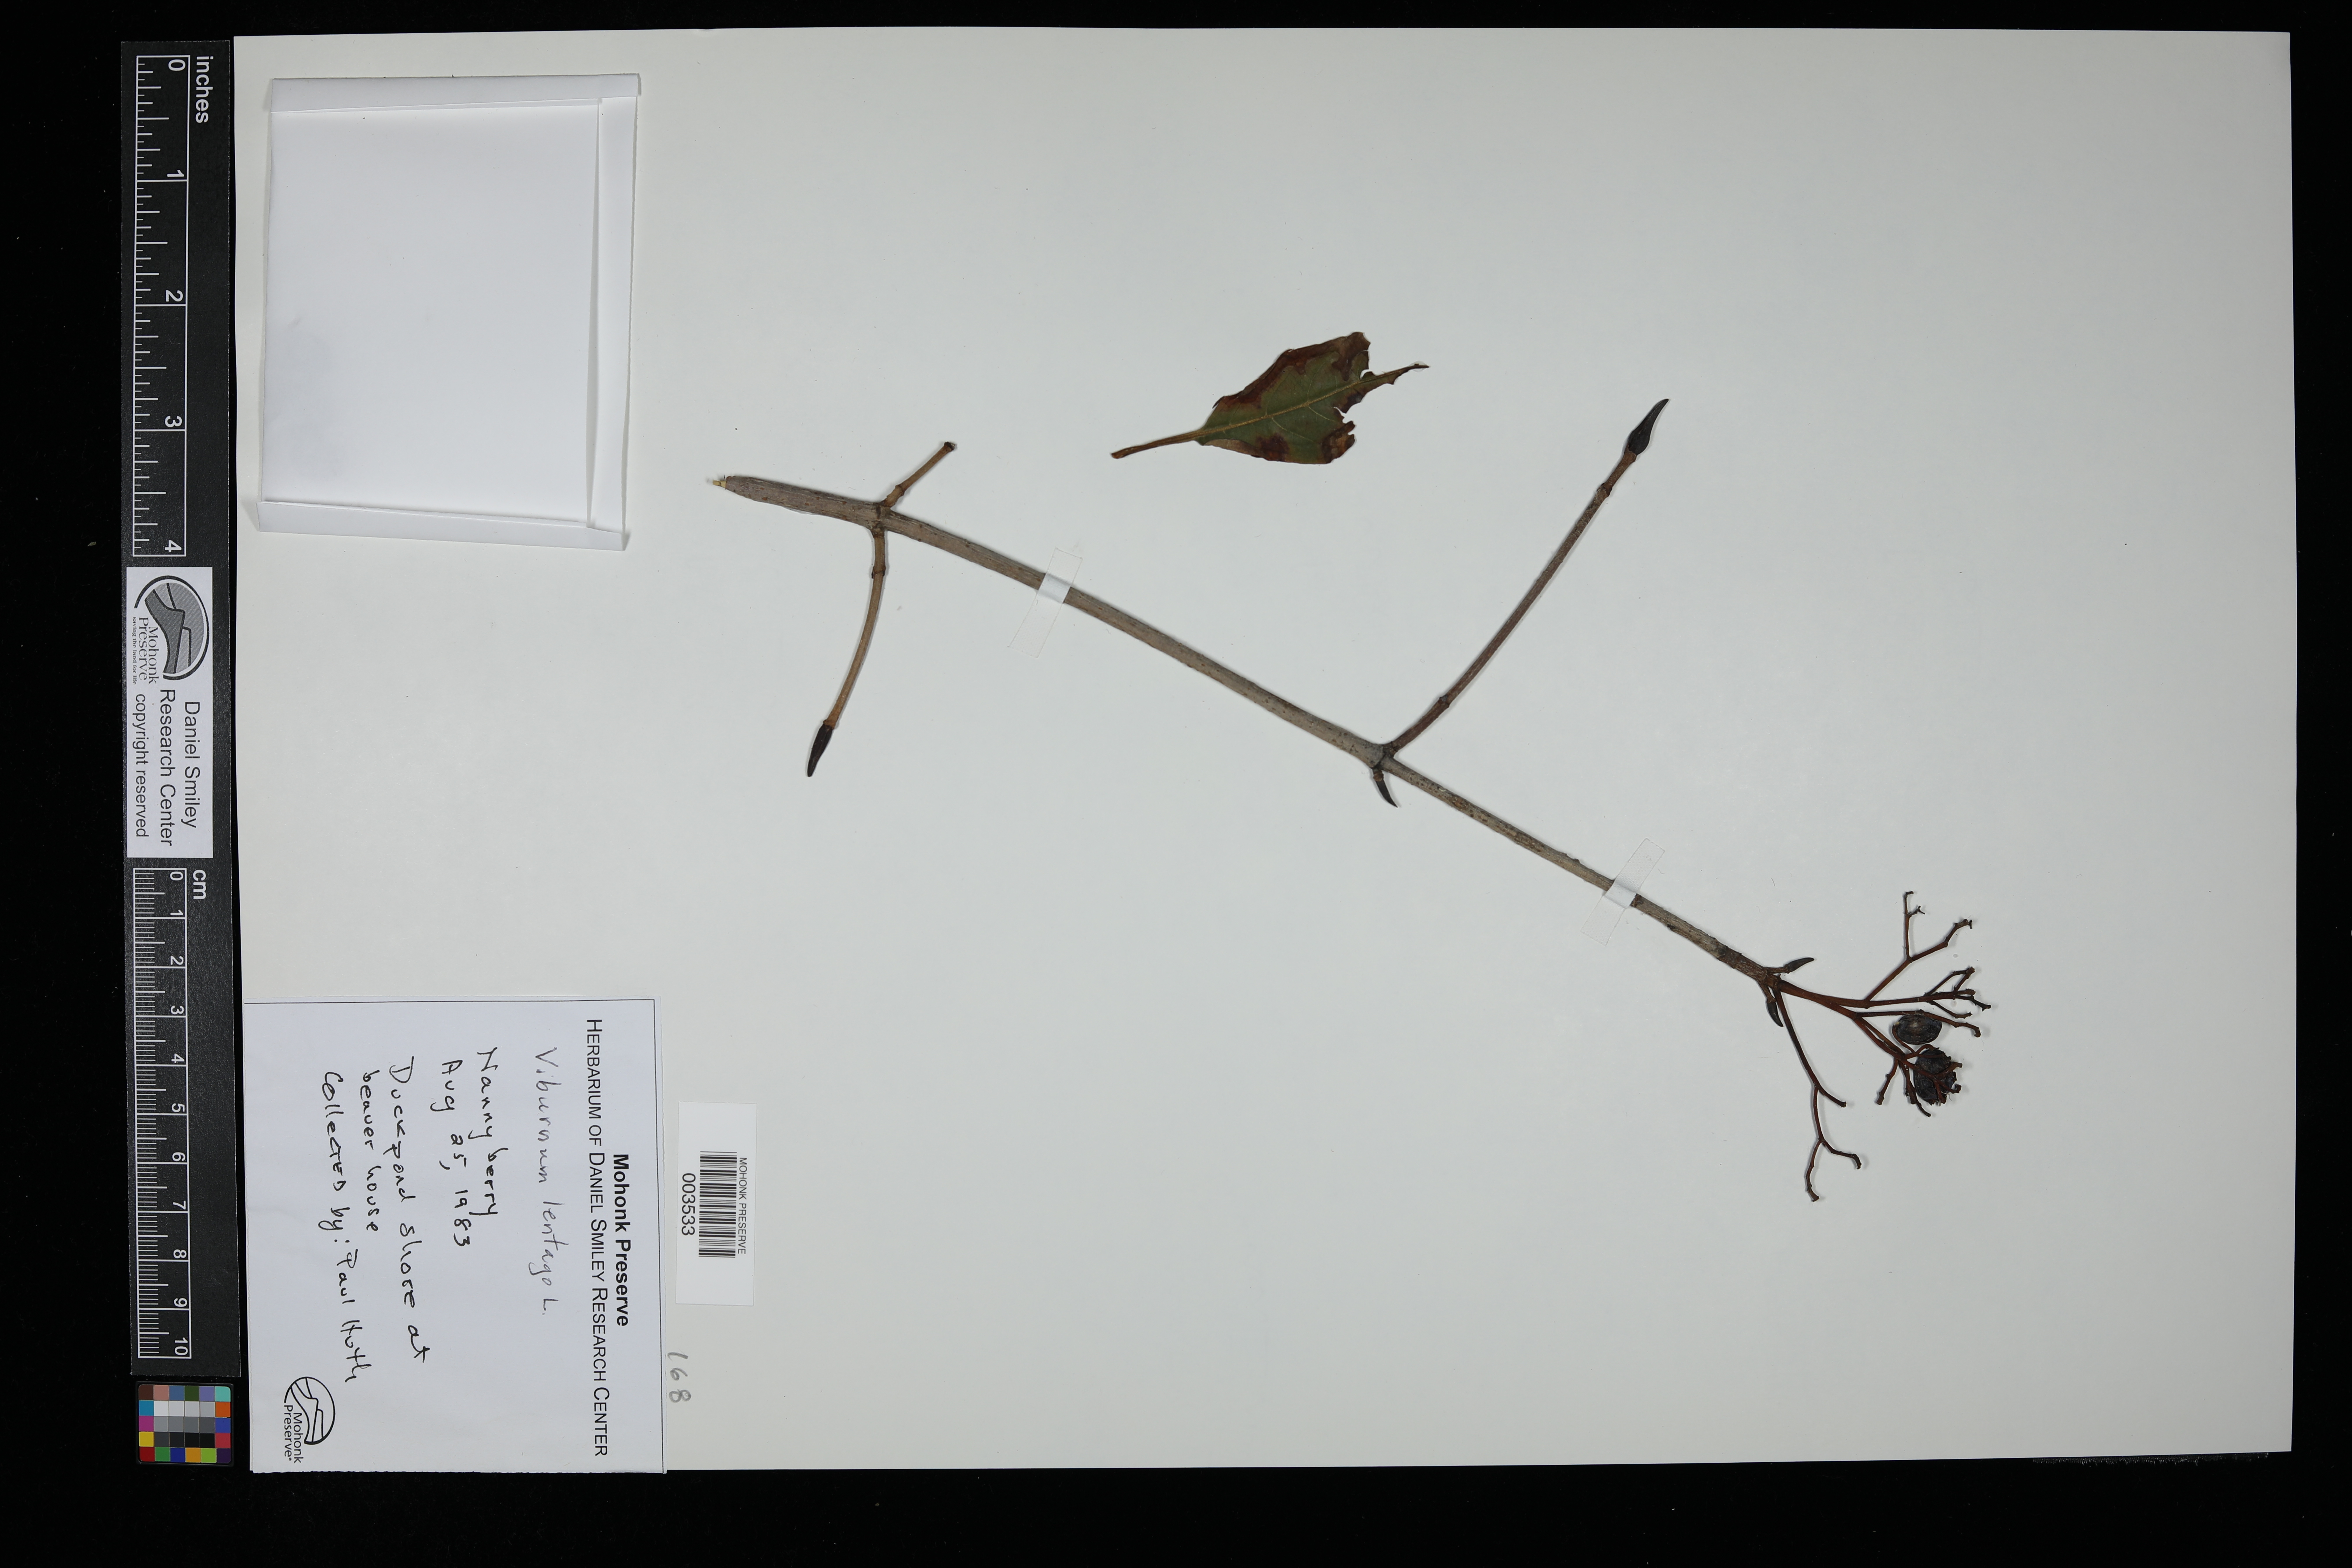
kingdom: Plantae
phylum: Tracheophyta
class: Magnoliopsida
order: Dipsacales
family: Viburnaceae
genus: Viburnum
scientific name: Viburnum lentago
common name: Black haw
